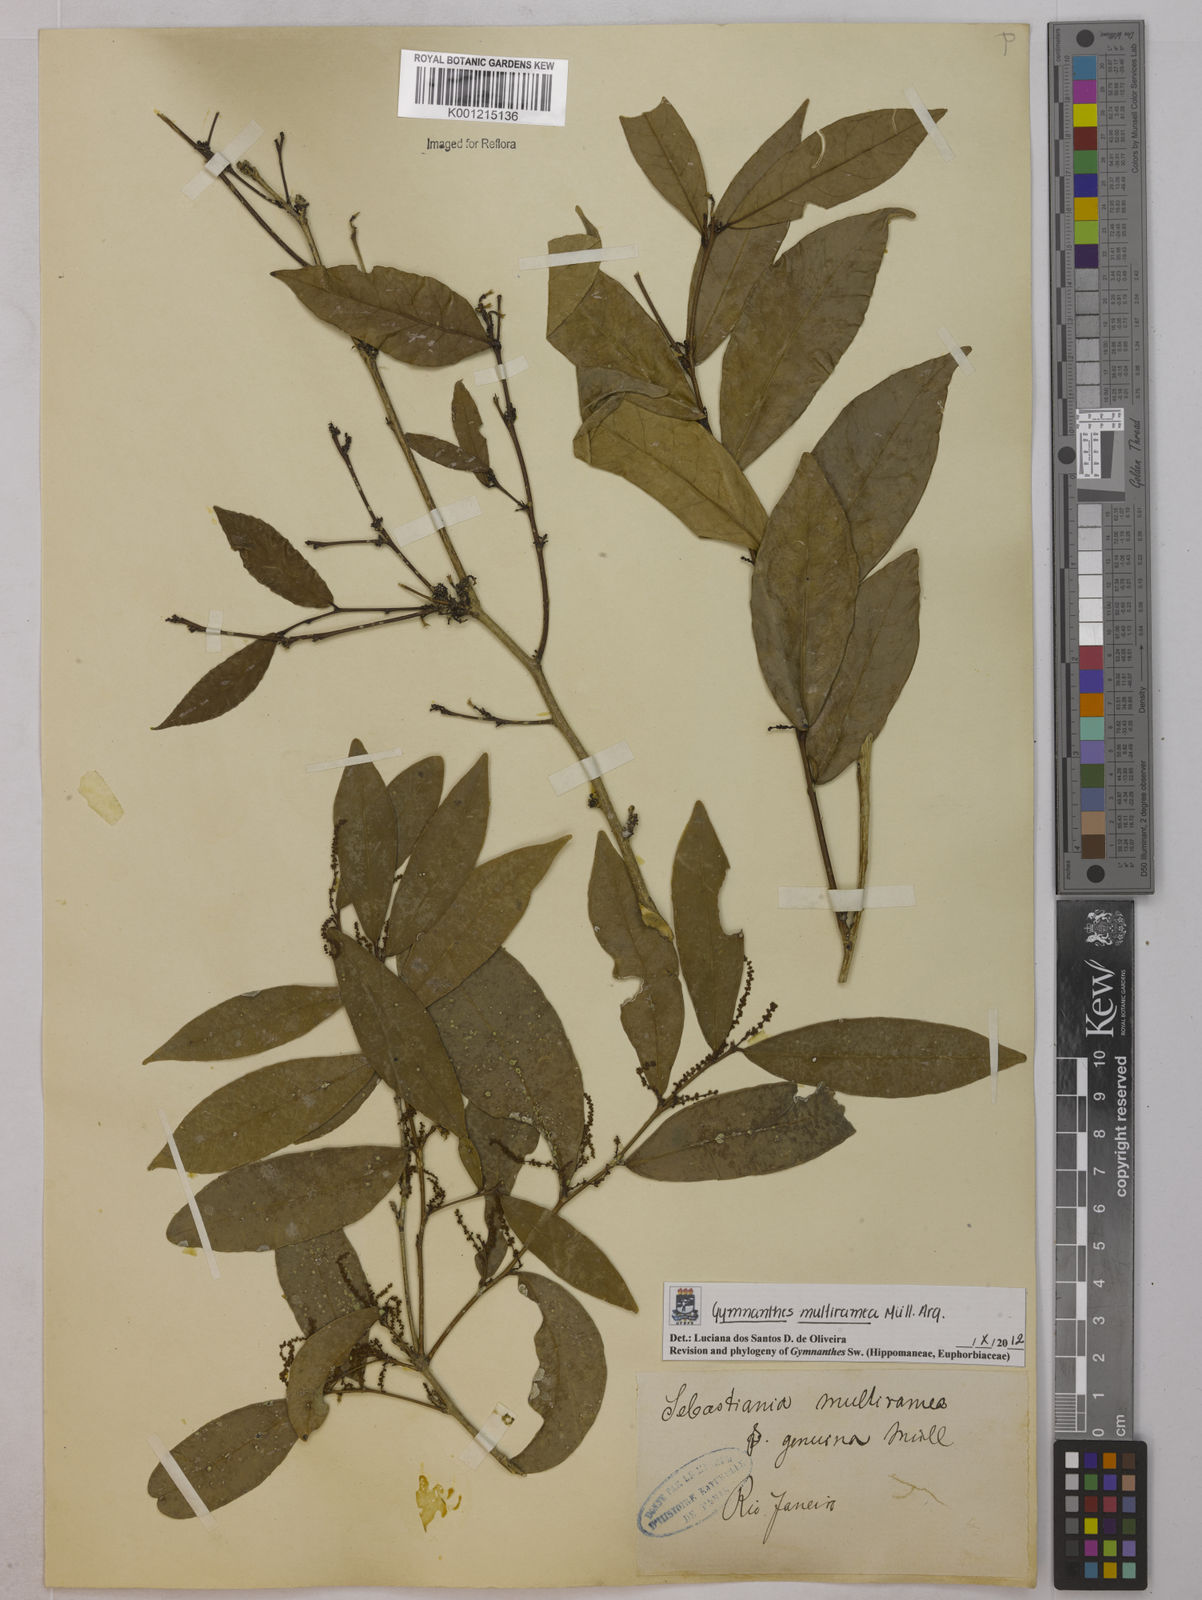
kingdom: Plantae
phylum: Tracheophyta
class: Magnoliopsida
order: Malpighiales
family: Euphorbiaceae
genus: Gymnanthes
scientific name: Gymnanthes
